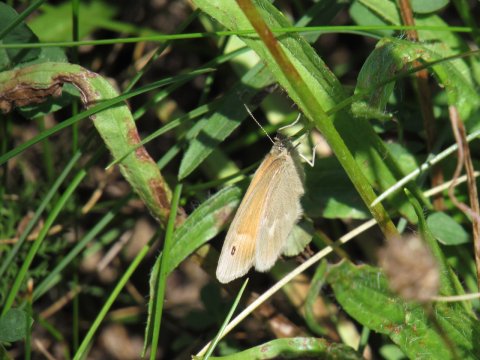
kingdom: Animalia
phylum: Arthropoda
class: Insecta
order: Lepidoptera
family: Nymphalidae
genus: Coenonympha
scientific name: Coenonympha tullia
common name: Large Heath
